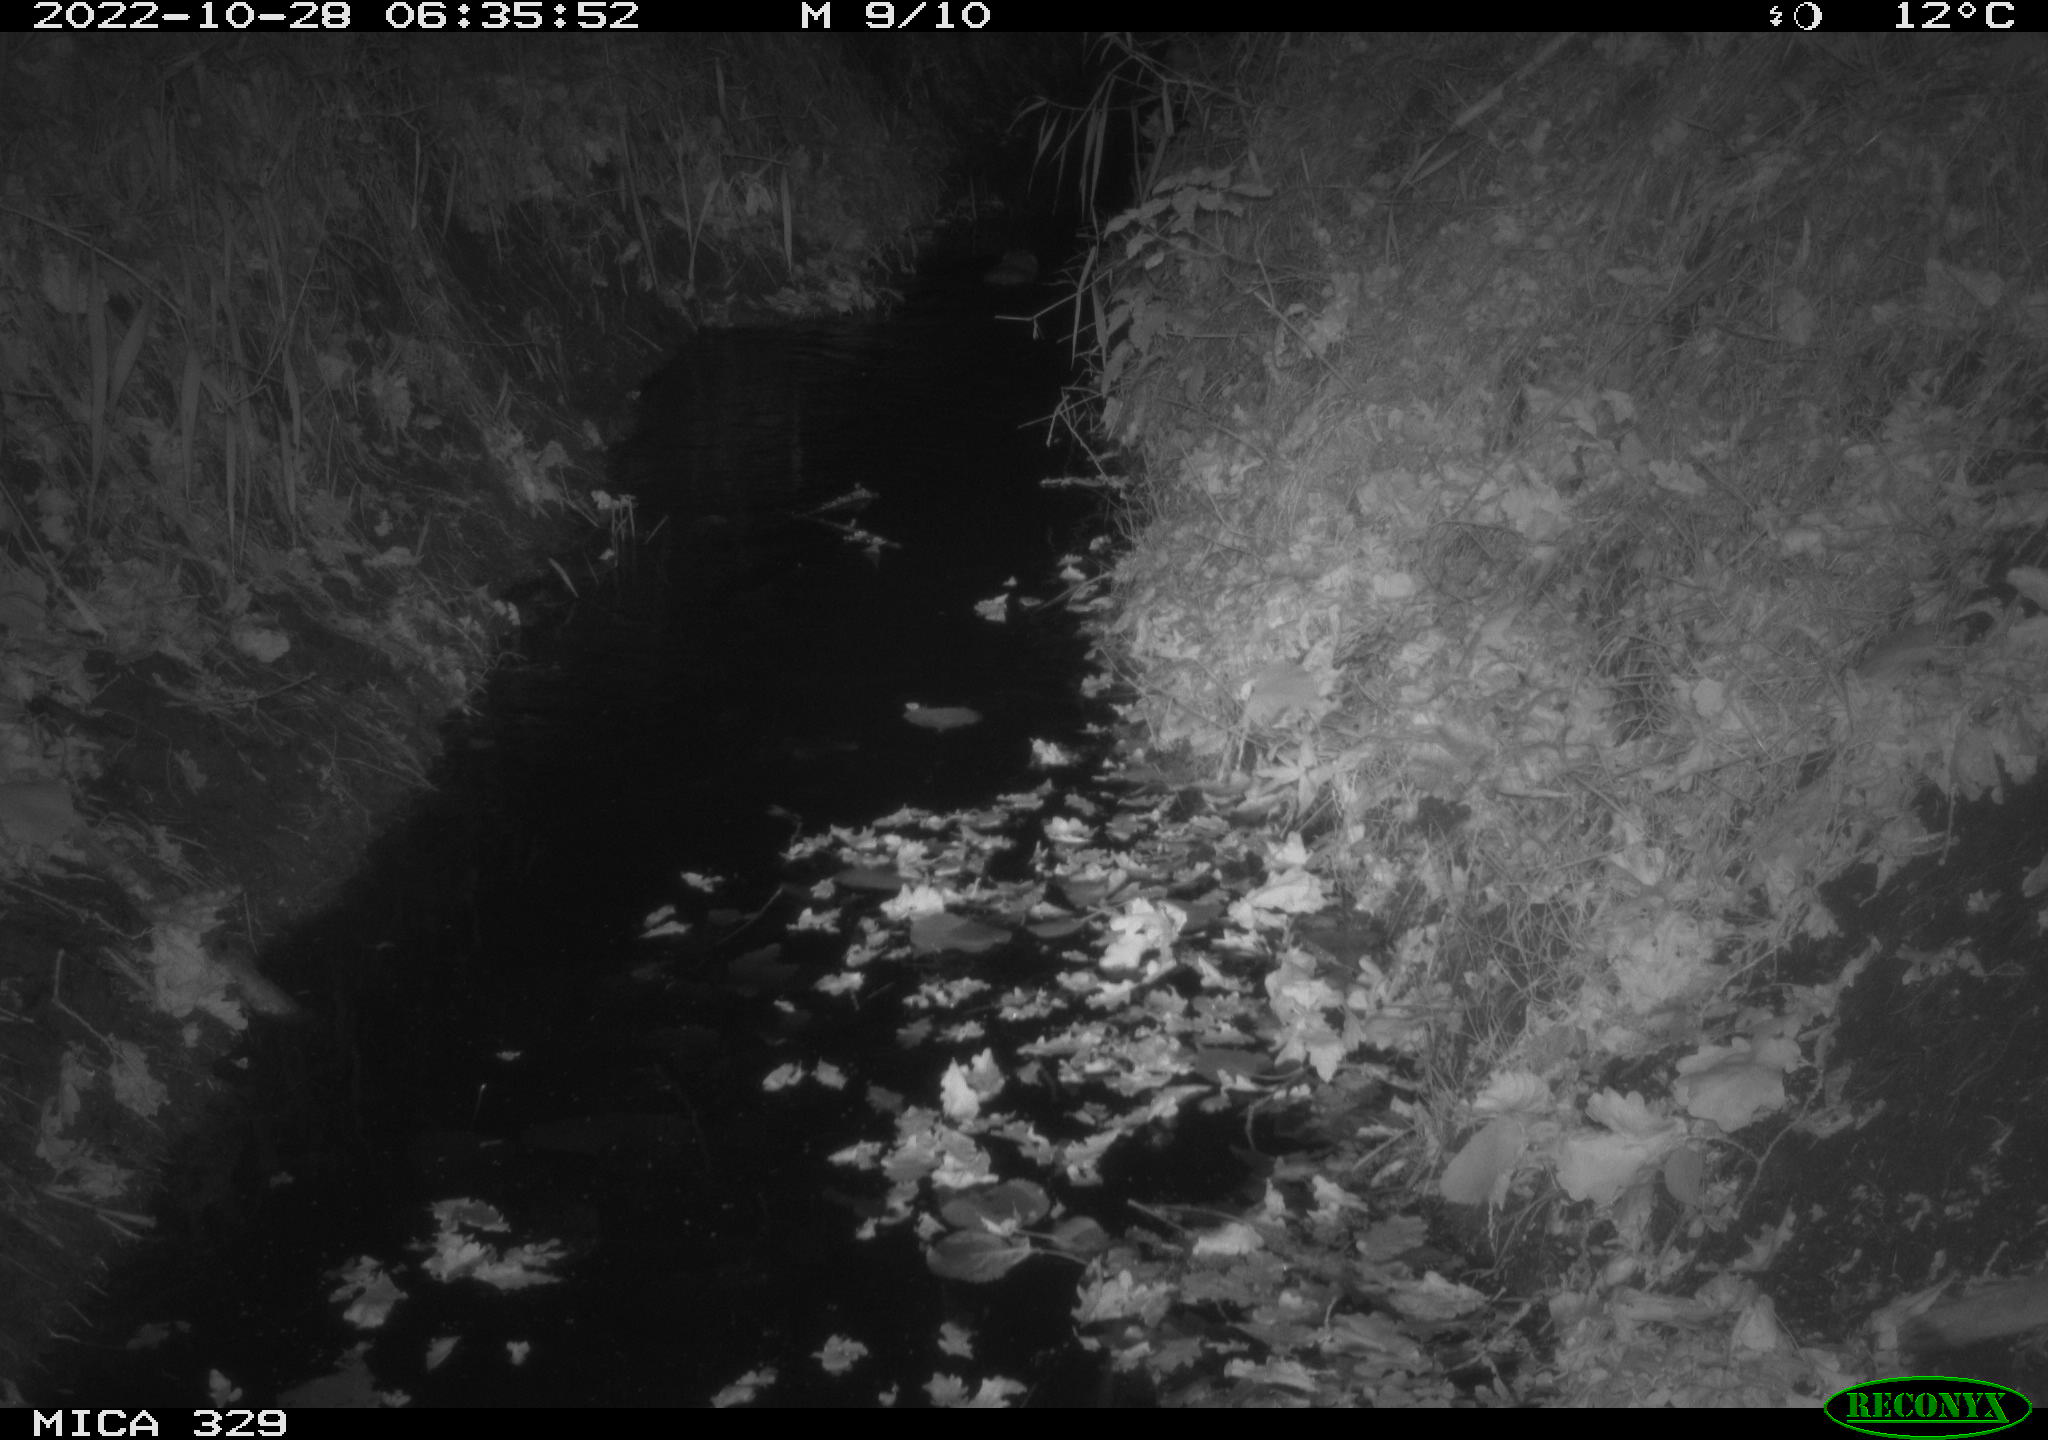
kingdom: Animalia
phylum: Chordata
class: Mammalia
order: Rodentia
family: Cricetidae
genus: Ondatra
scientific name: Ondatra zibethicus
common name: Muskrat
